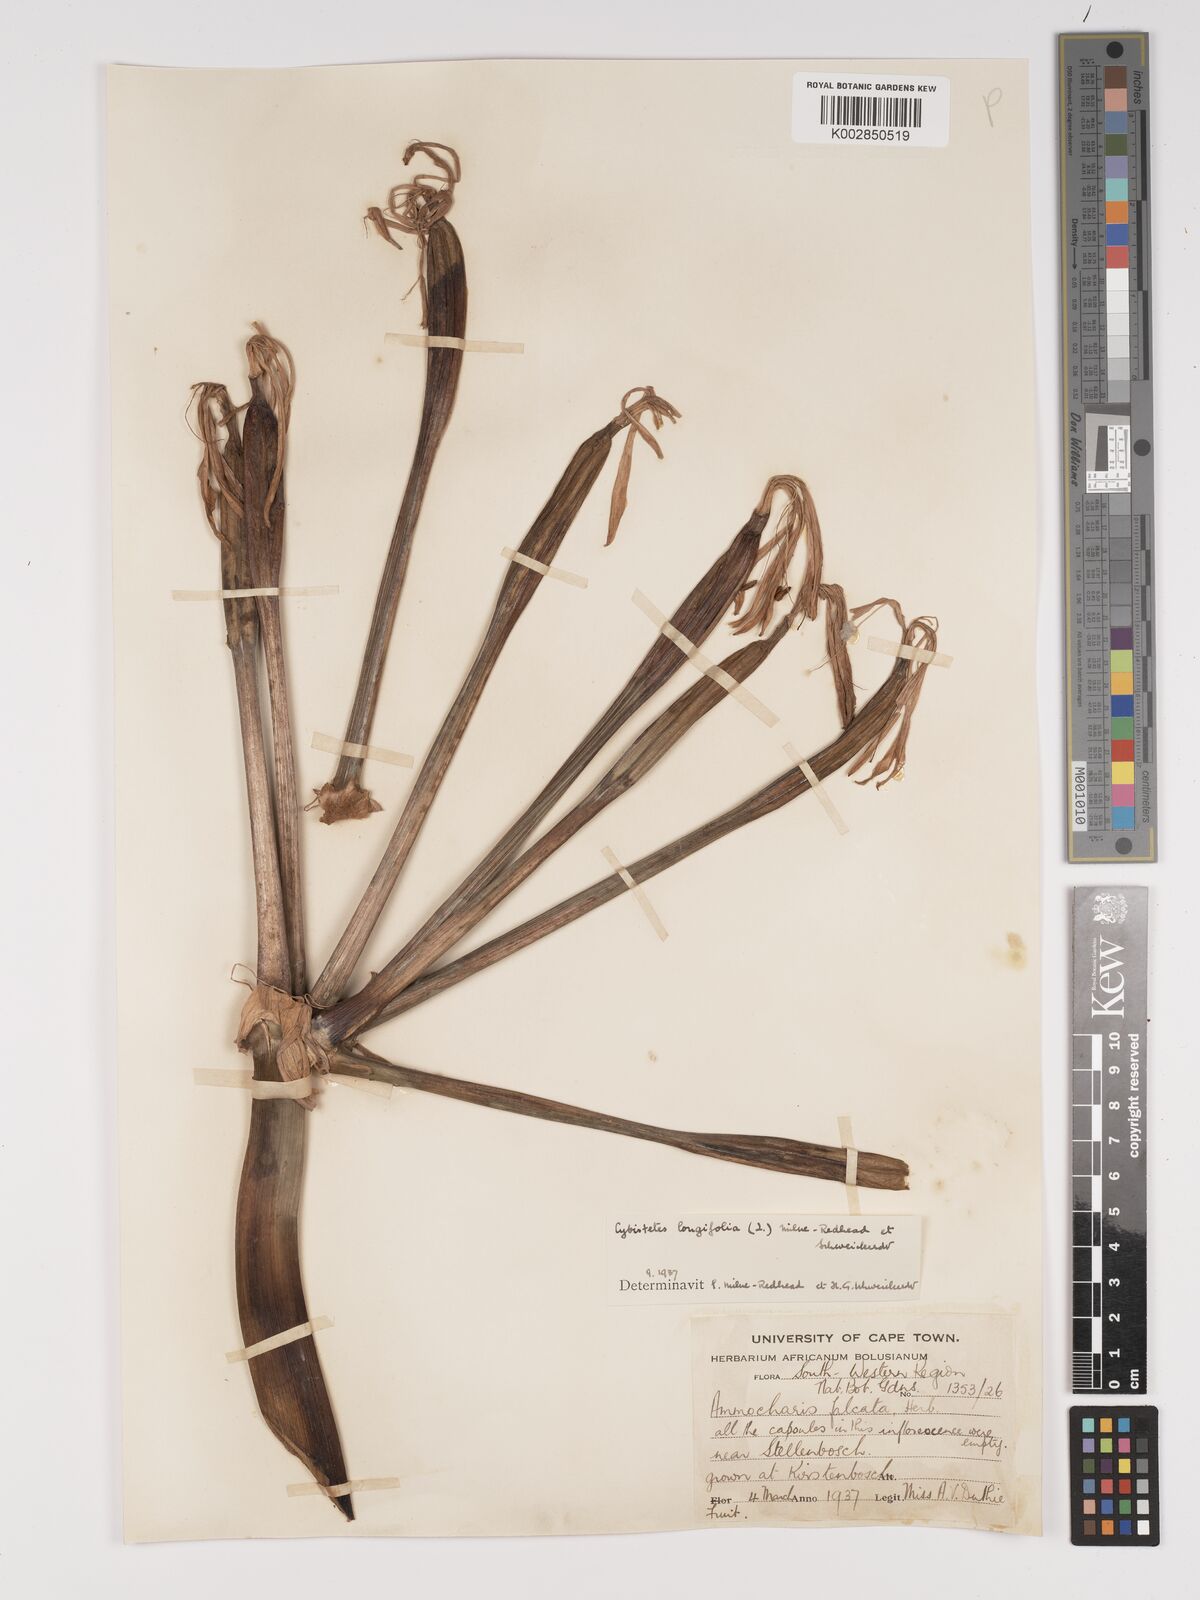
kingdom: Plantae
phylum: Tracheophyta
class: Liliopsida
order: Asparagales
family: Amaryllidaceae
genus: Ammocharis
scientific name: Ammocharis longifolia
